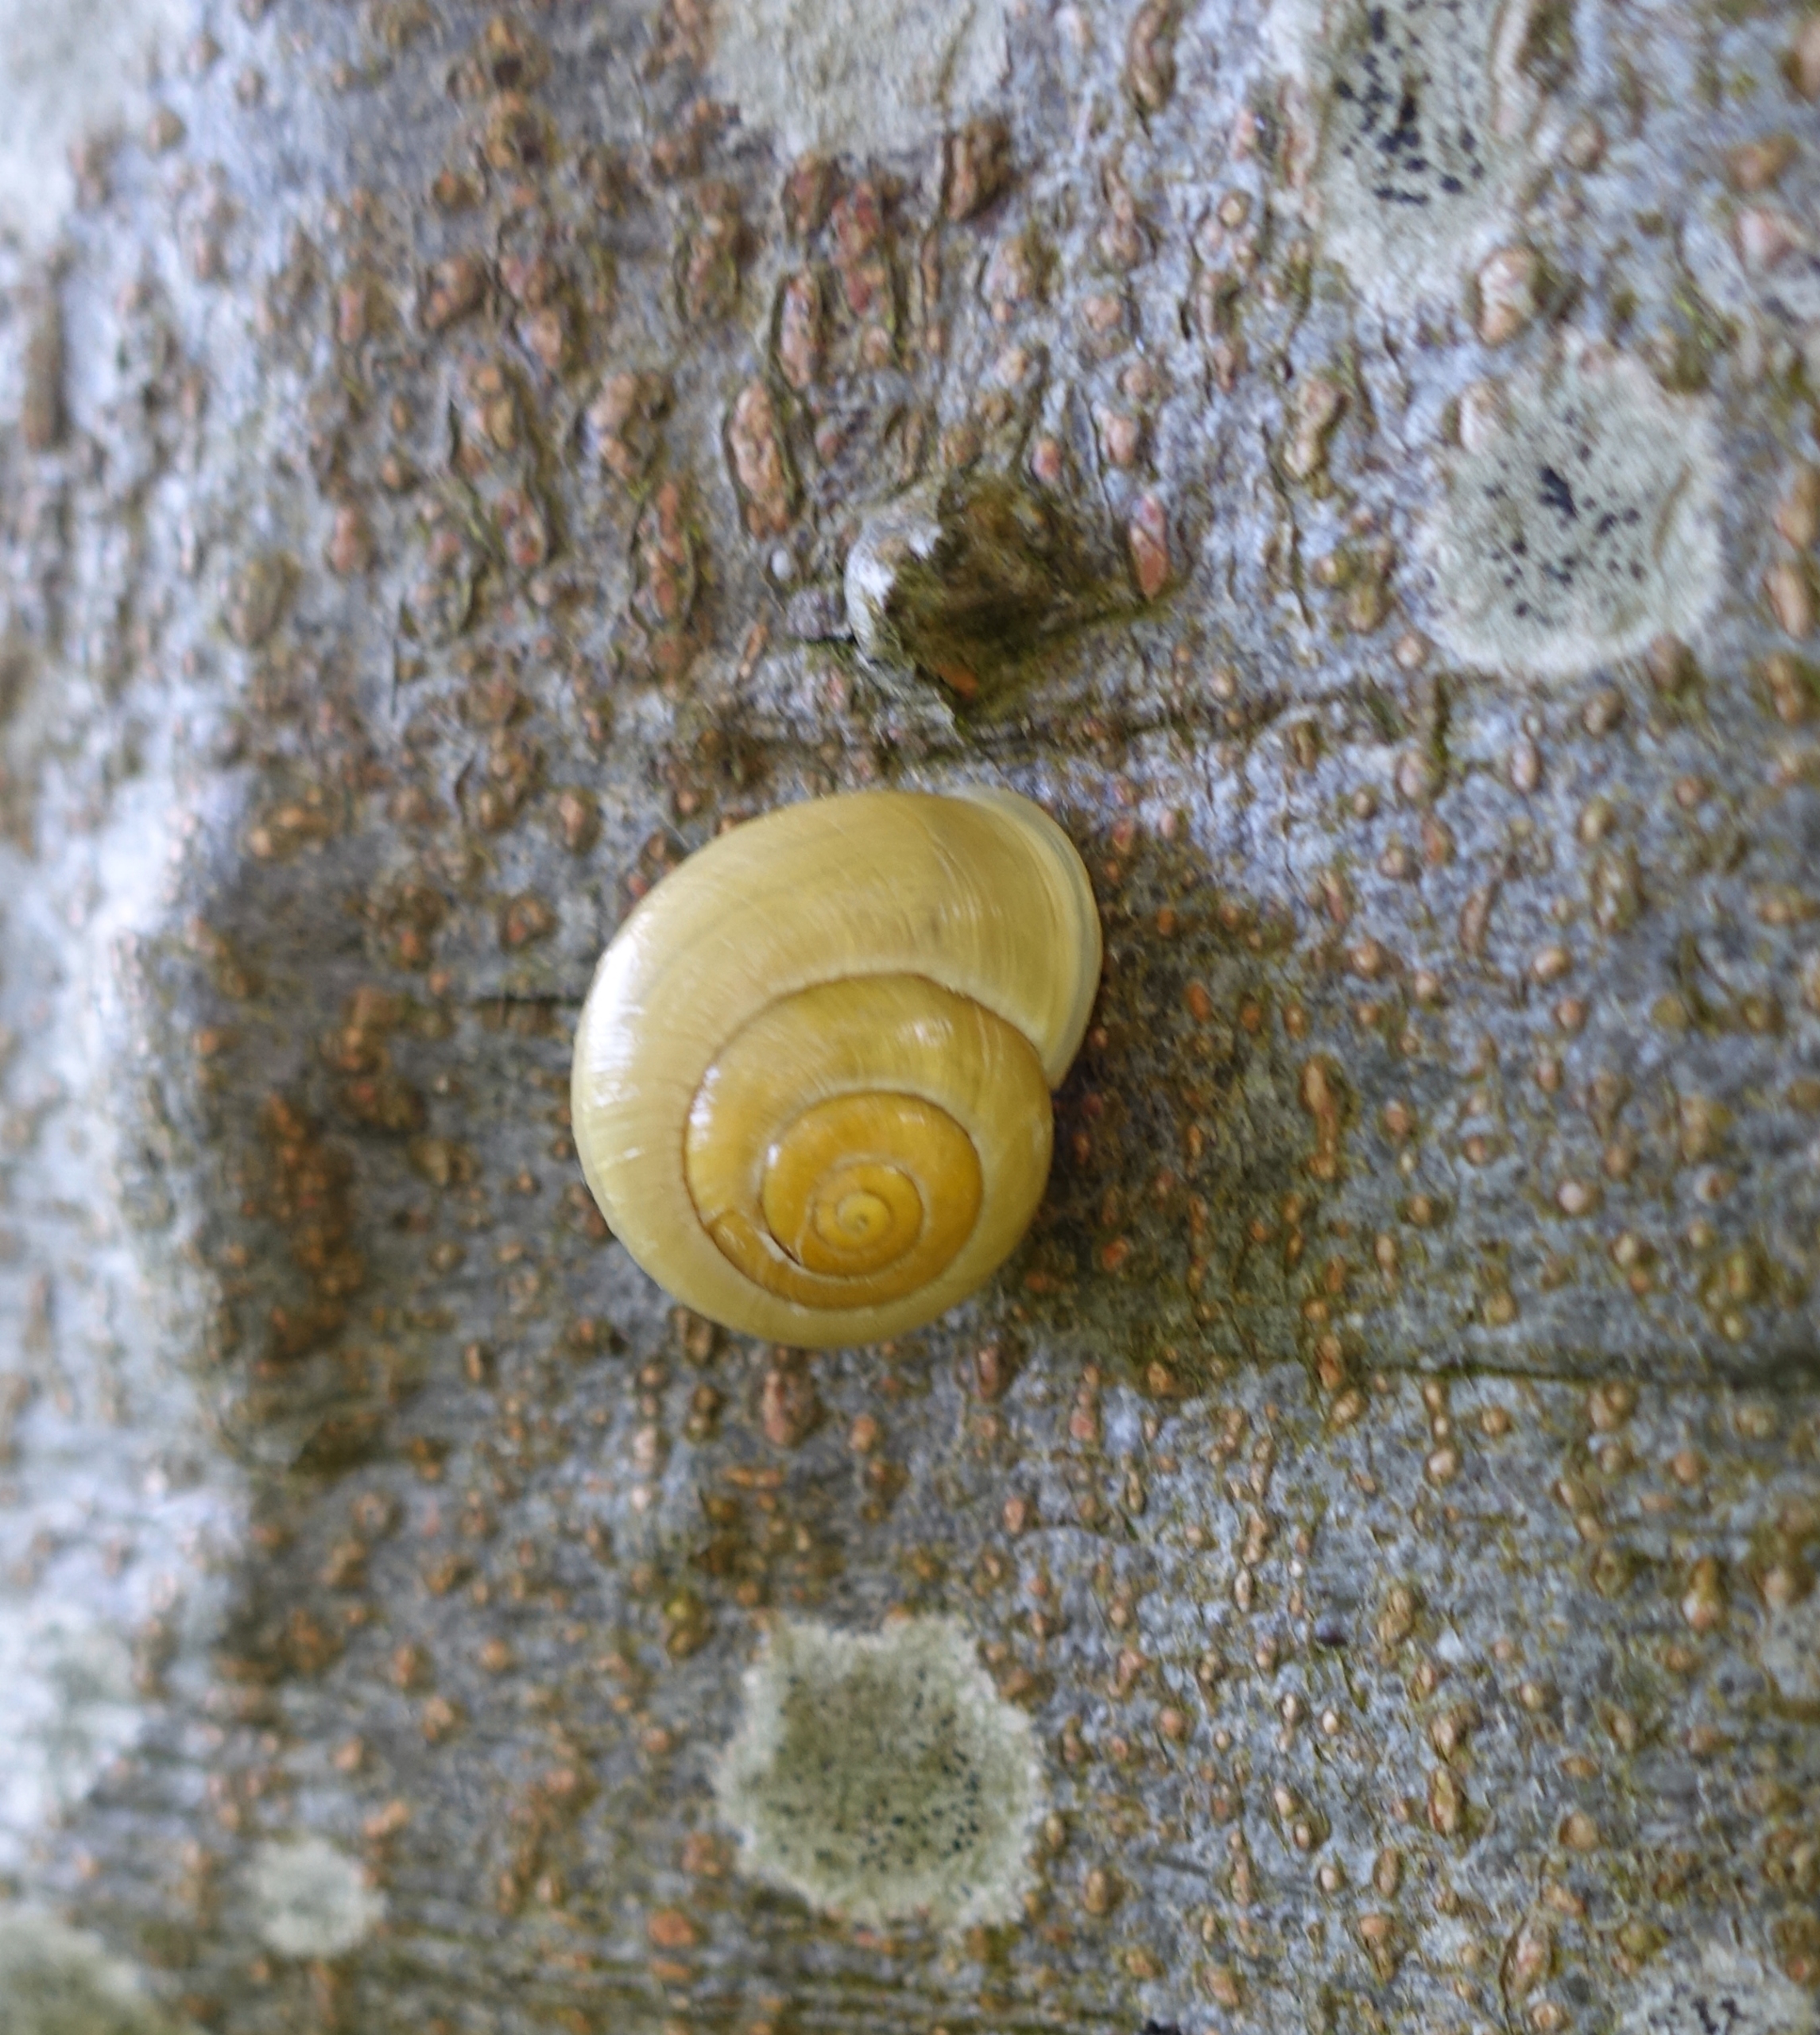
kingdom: Animalia
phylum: Mollusca
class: Gastropoda
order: Stylommatophora
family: Helicidae
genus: Cepaea
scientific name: Cepaea hortensis
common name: Havesnegl
